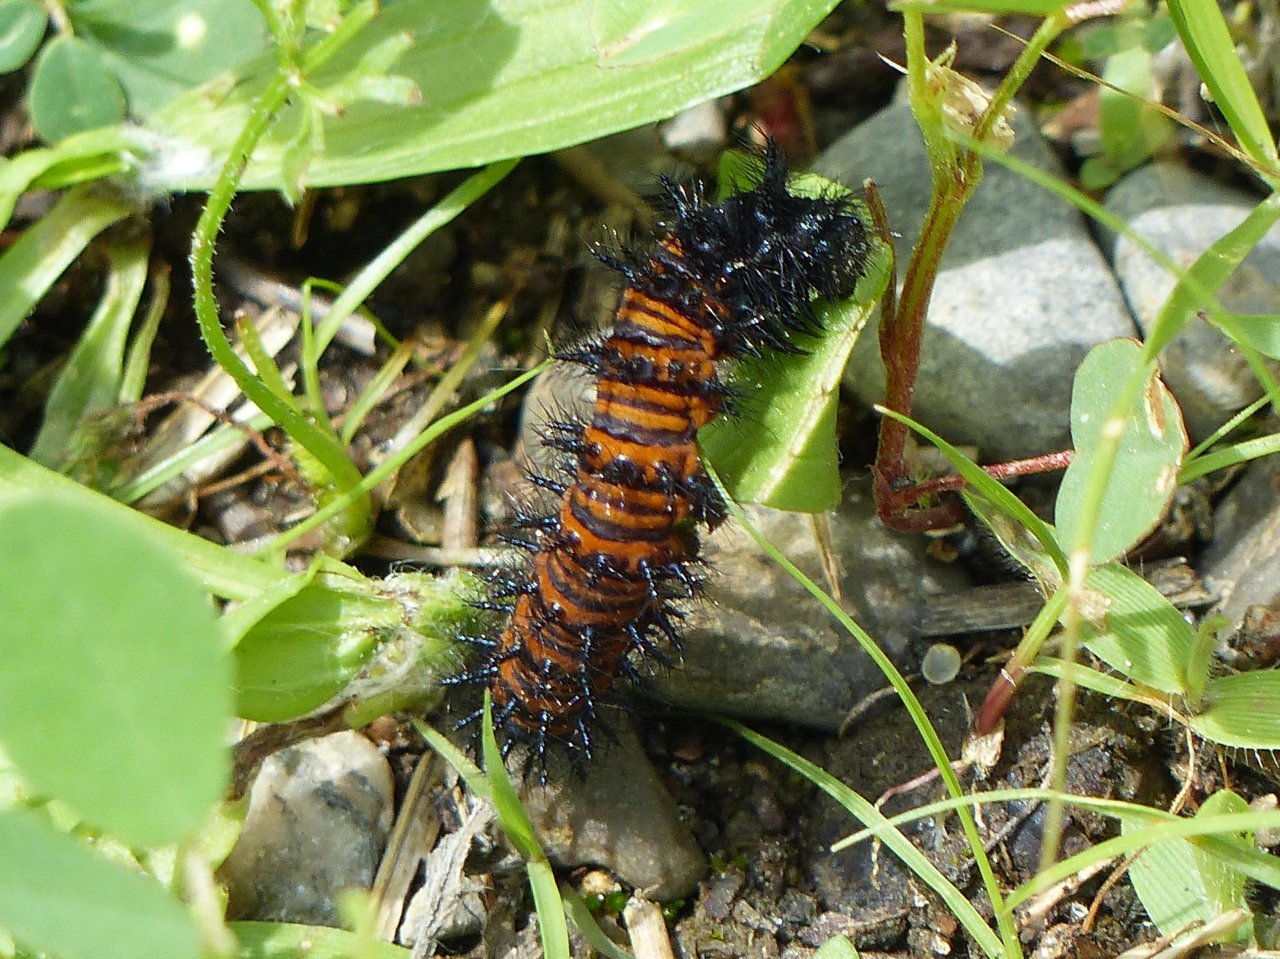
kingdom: Animalia
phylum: Arthropoda
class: Insecta
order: Lepidoptera
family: Nymphalidae
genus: Euphydryas
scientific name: Euphydryas phaeton
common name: Baltimore Checkerspot
